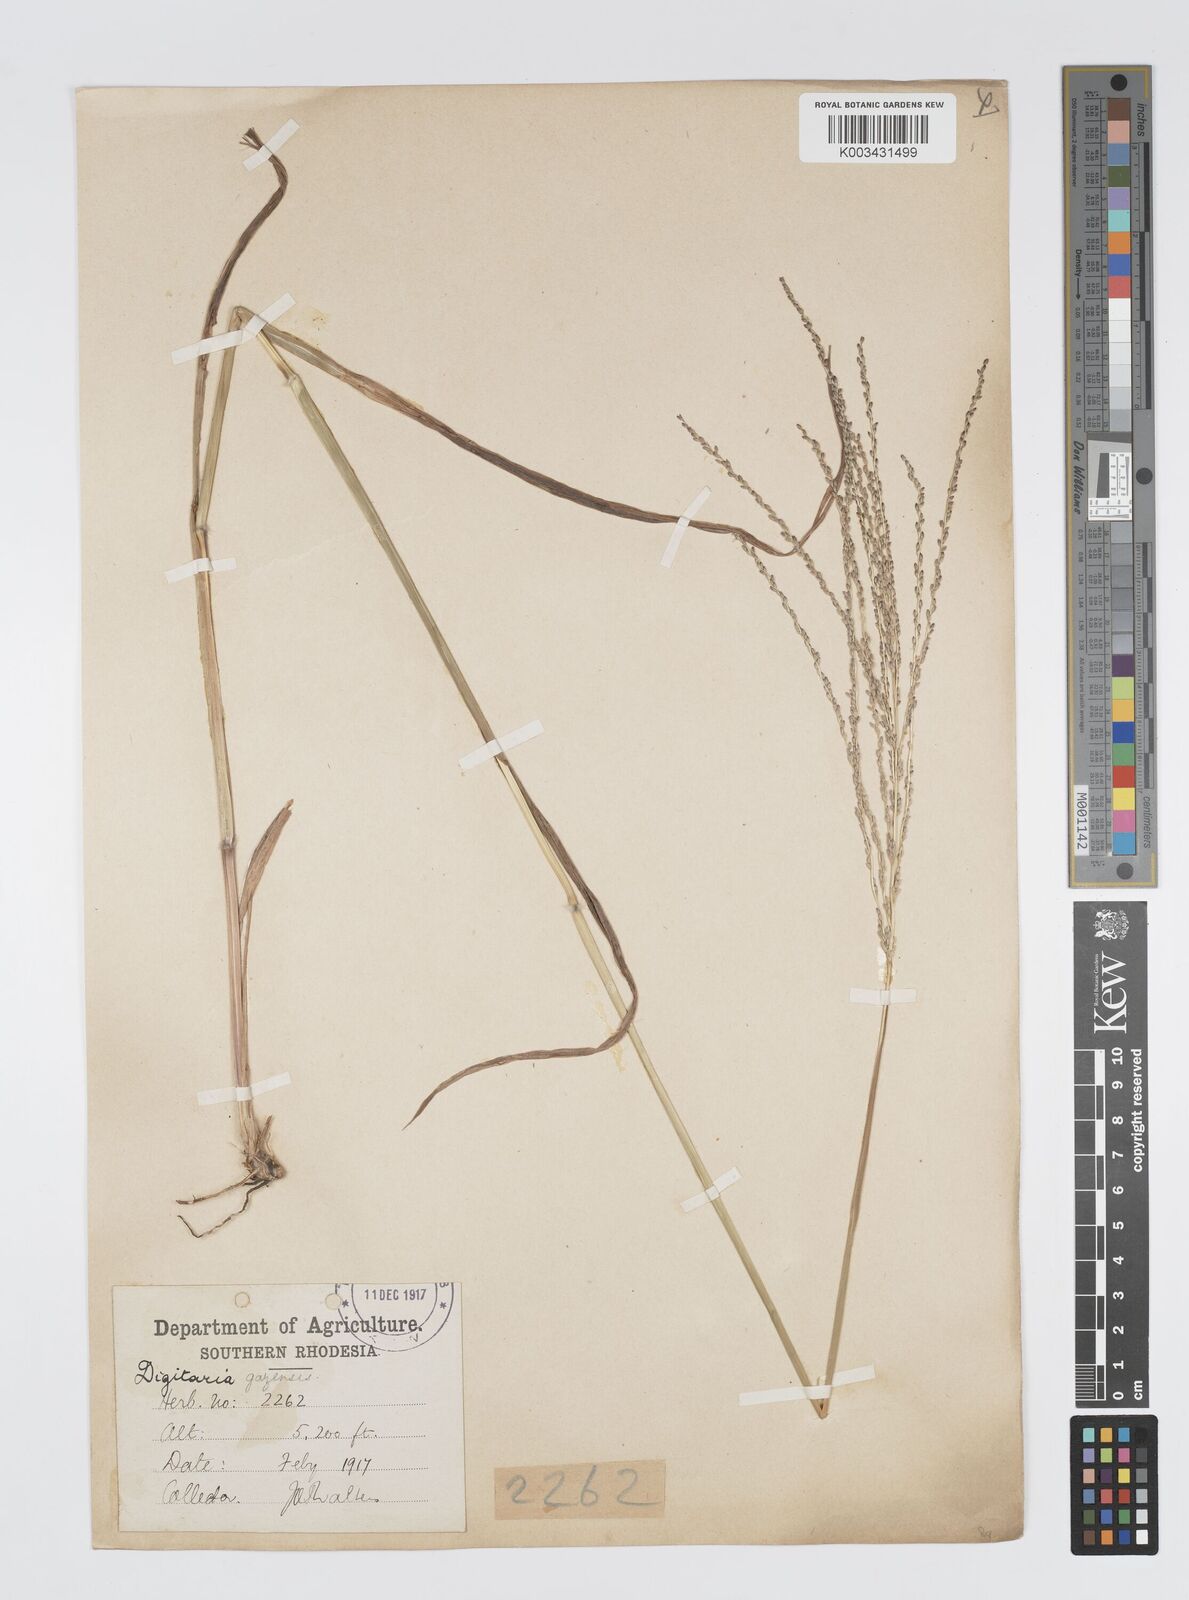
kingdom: Plantae
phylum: Tracheophyta
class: Liliopsida
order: Poales
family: Poaceae
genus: Digitaria
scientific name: Digitaria gazensis
